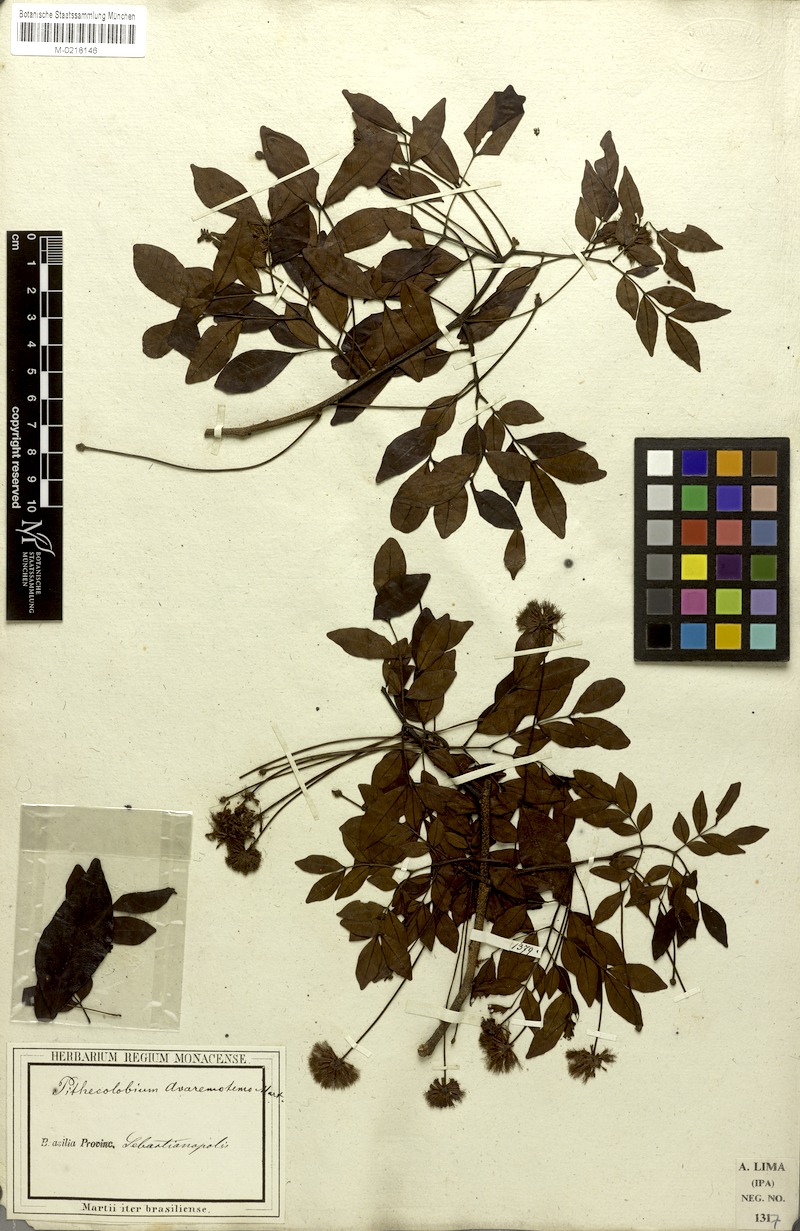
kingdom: Plantae
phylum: Tracheophyta
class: Magnoliopsida
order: Fabales
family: Fabaceae
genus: Abarema
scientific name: Abarema cochliocarpos
